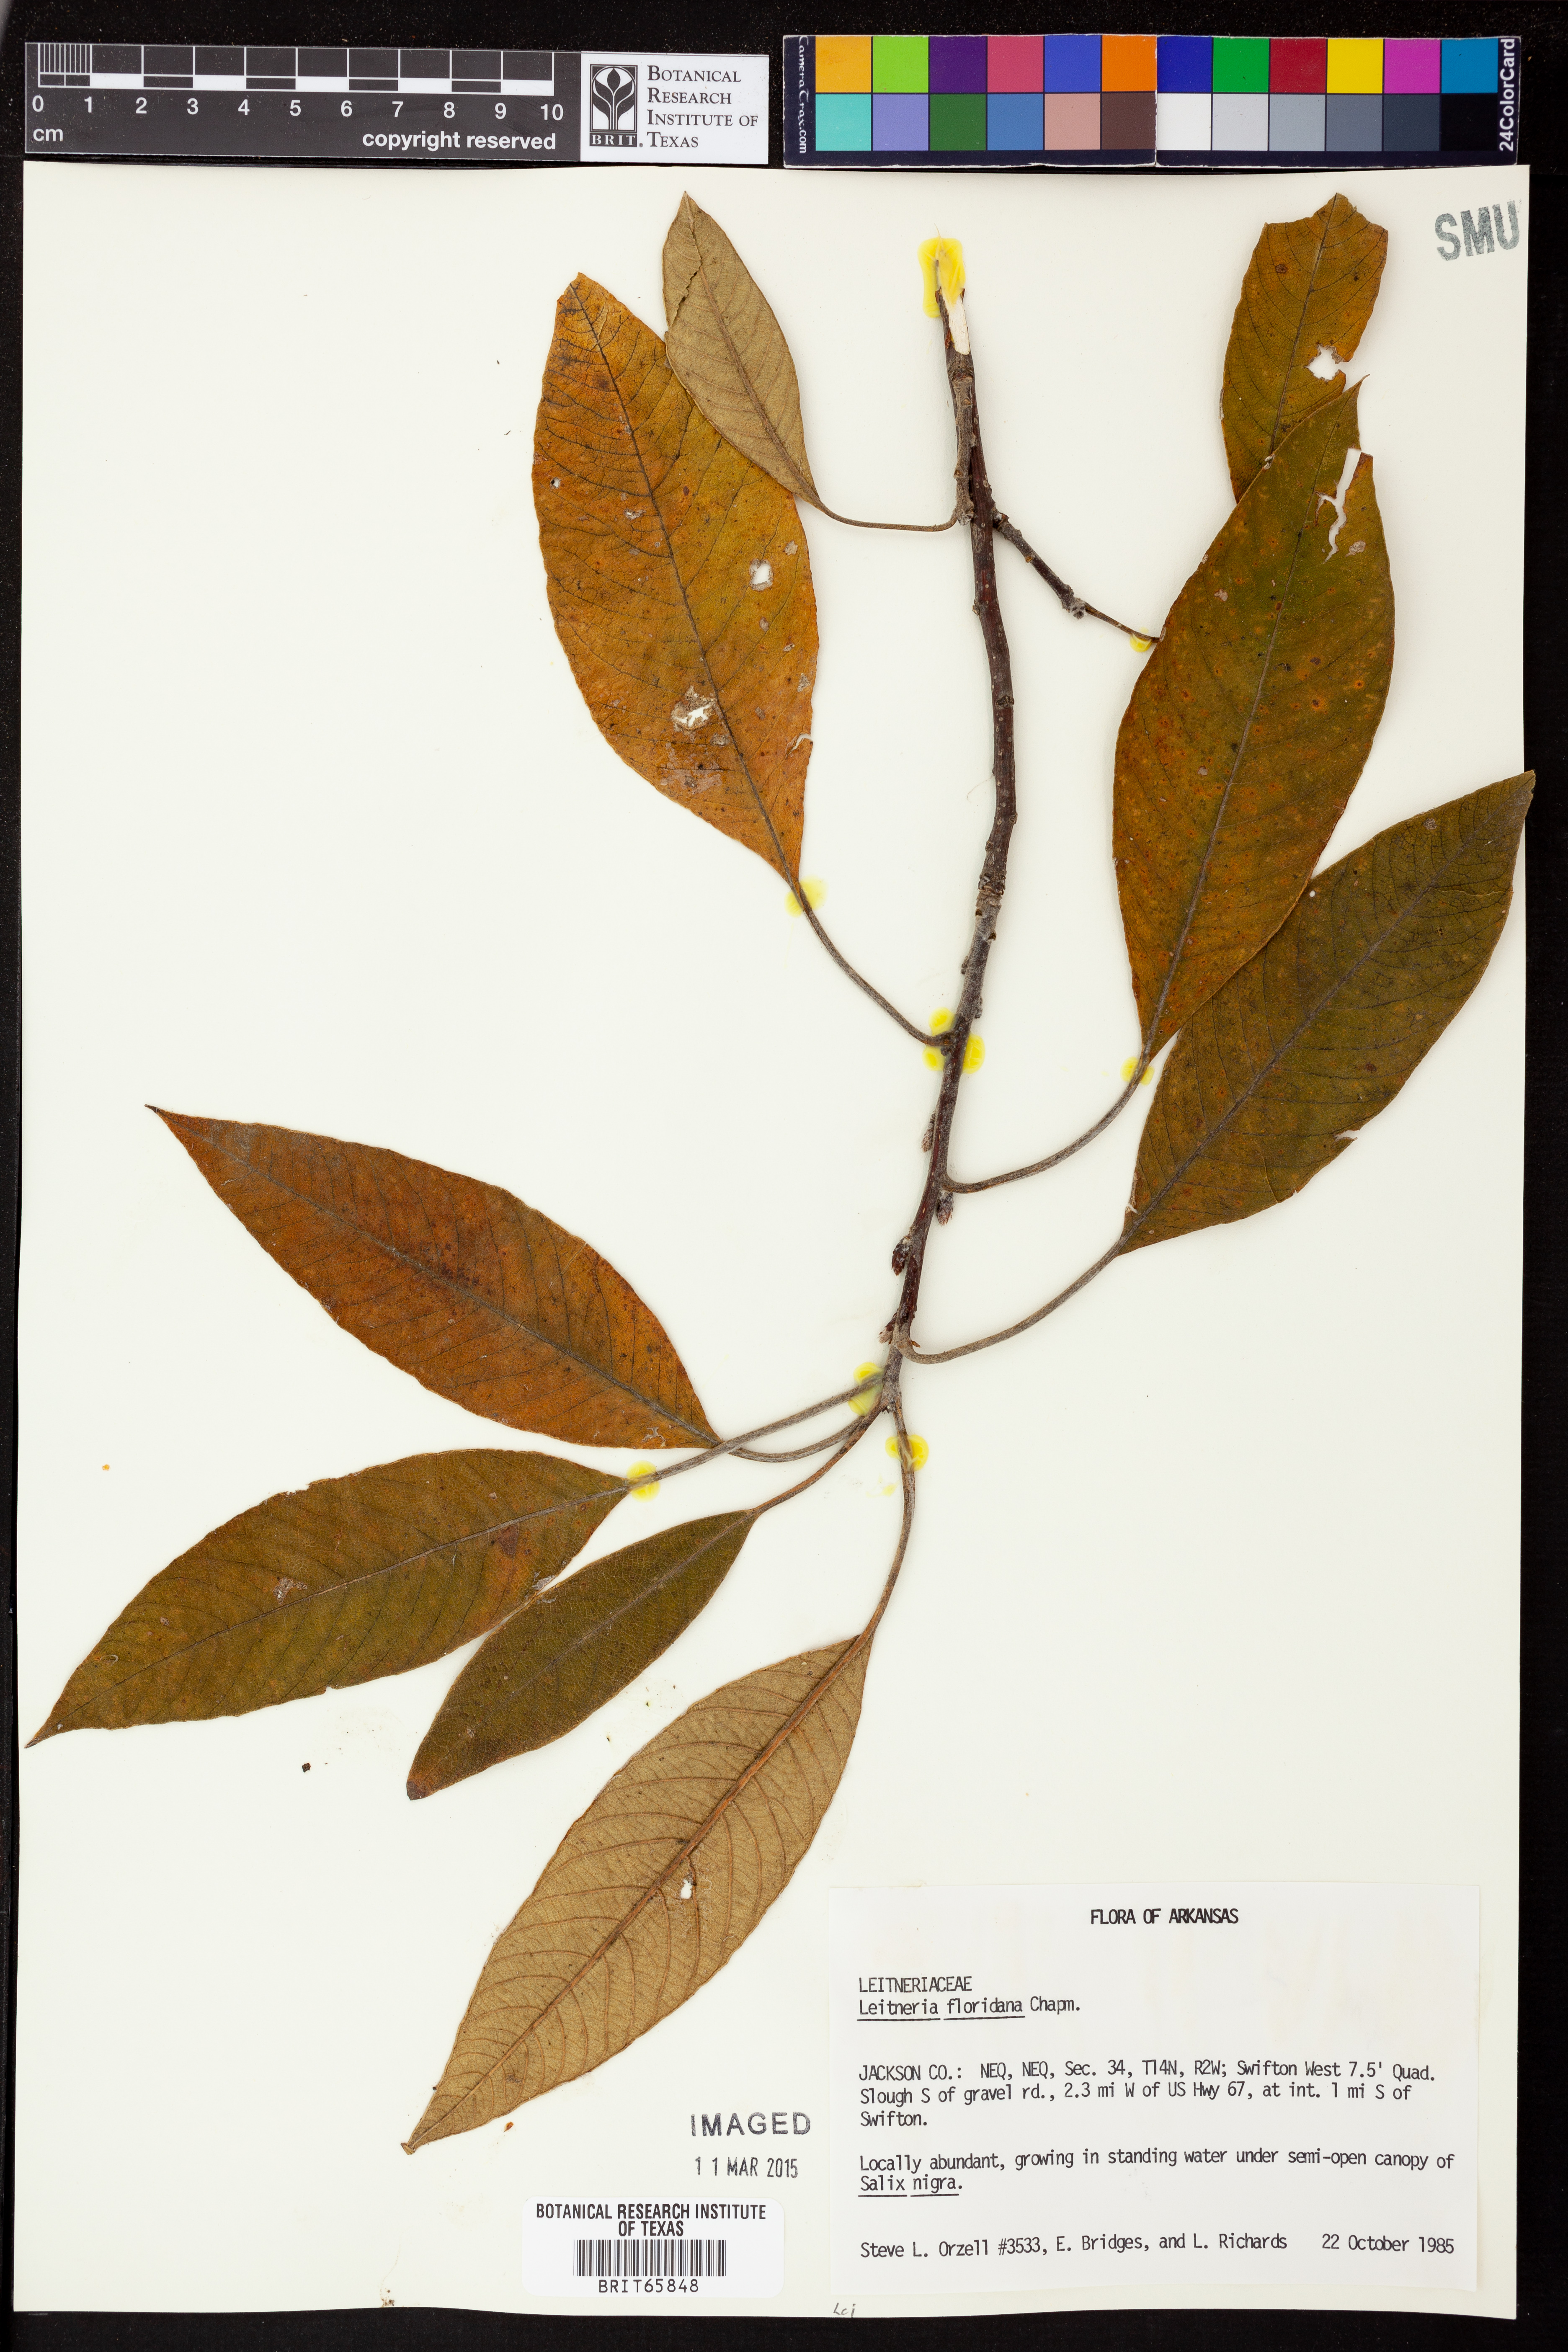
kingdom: Plantae
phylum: Tracheophyta
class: Magnoliopsida
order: Sapindales
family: Simaroubaceae
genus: Leitneria
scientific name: Leitneria floridana
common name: Corkwood
